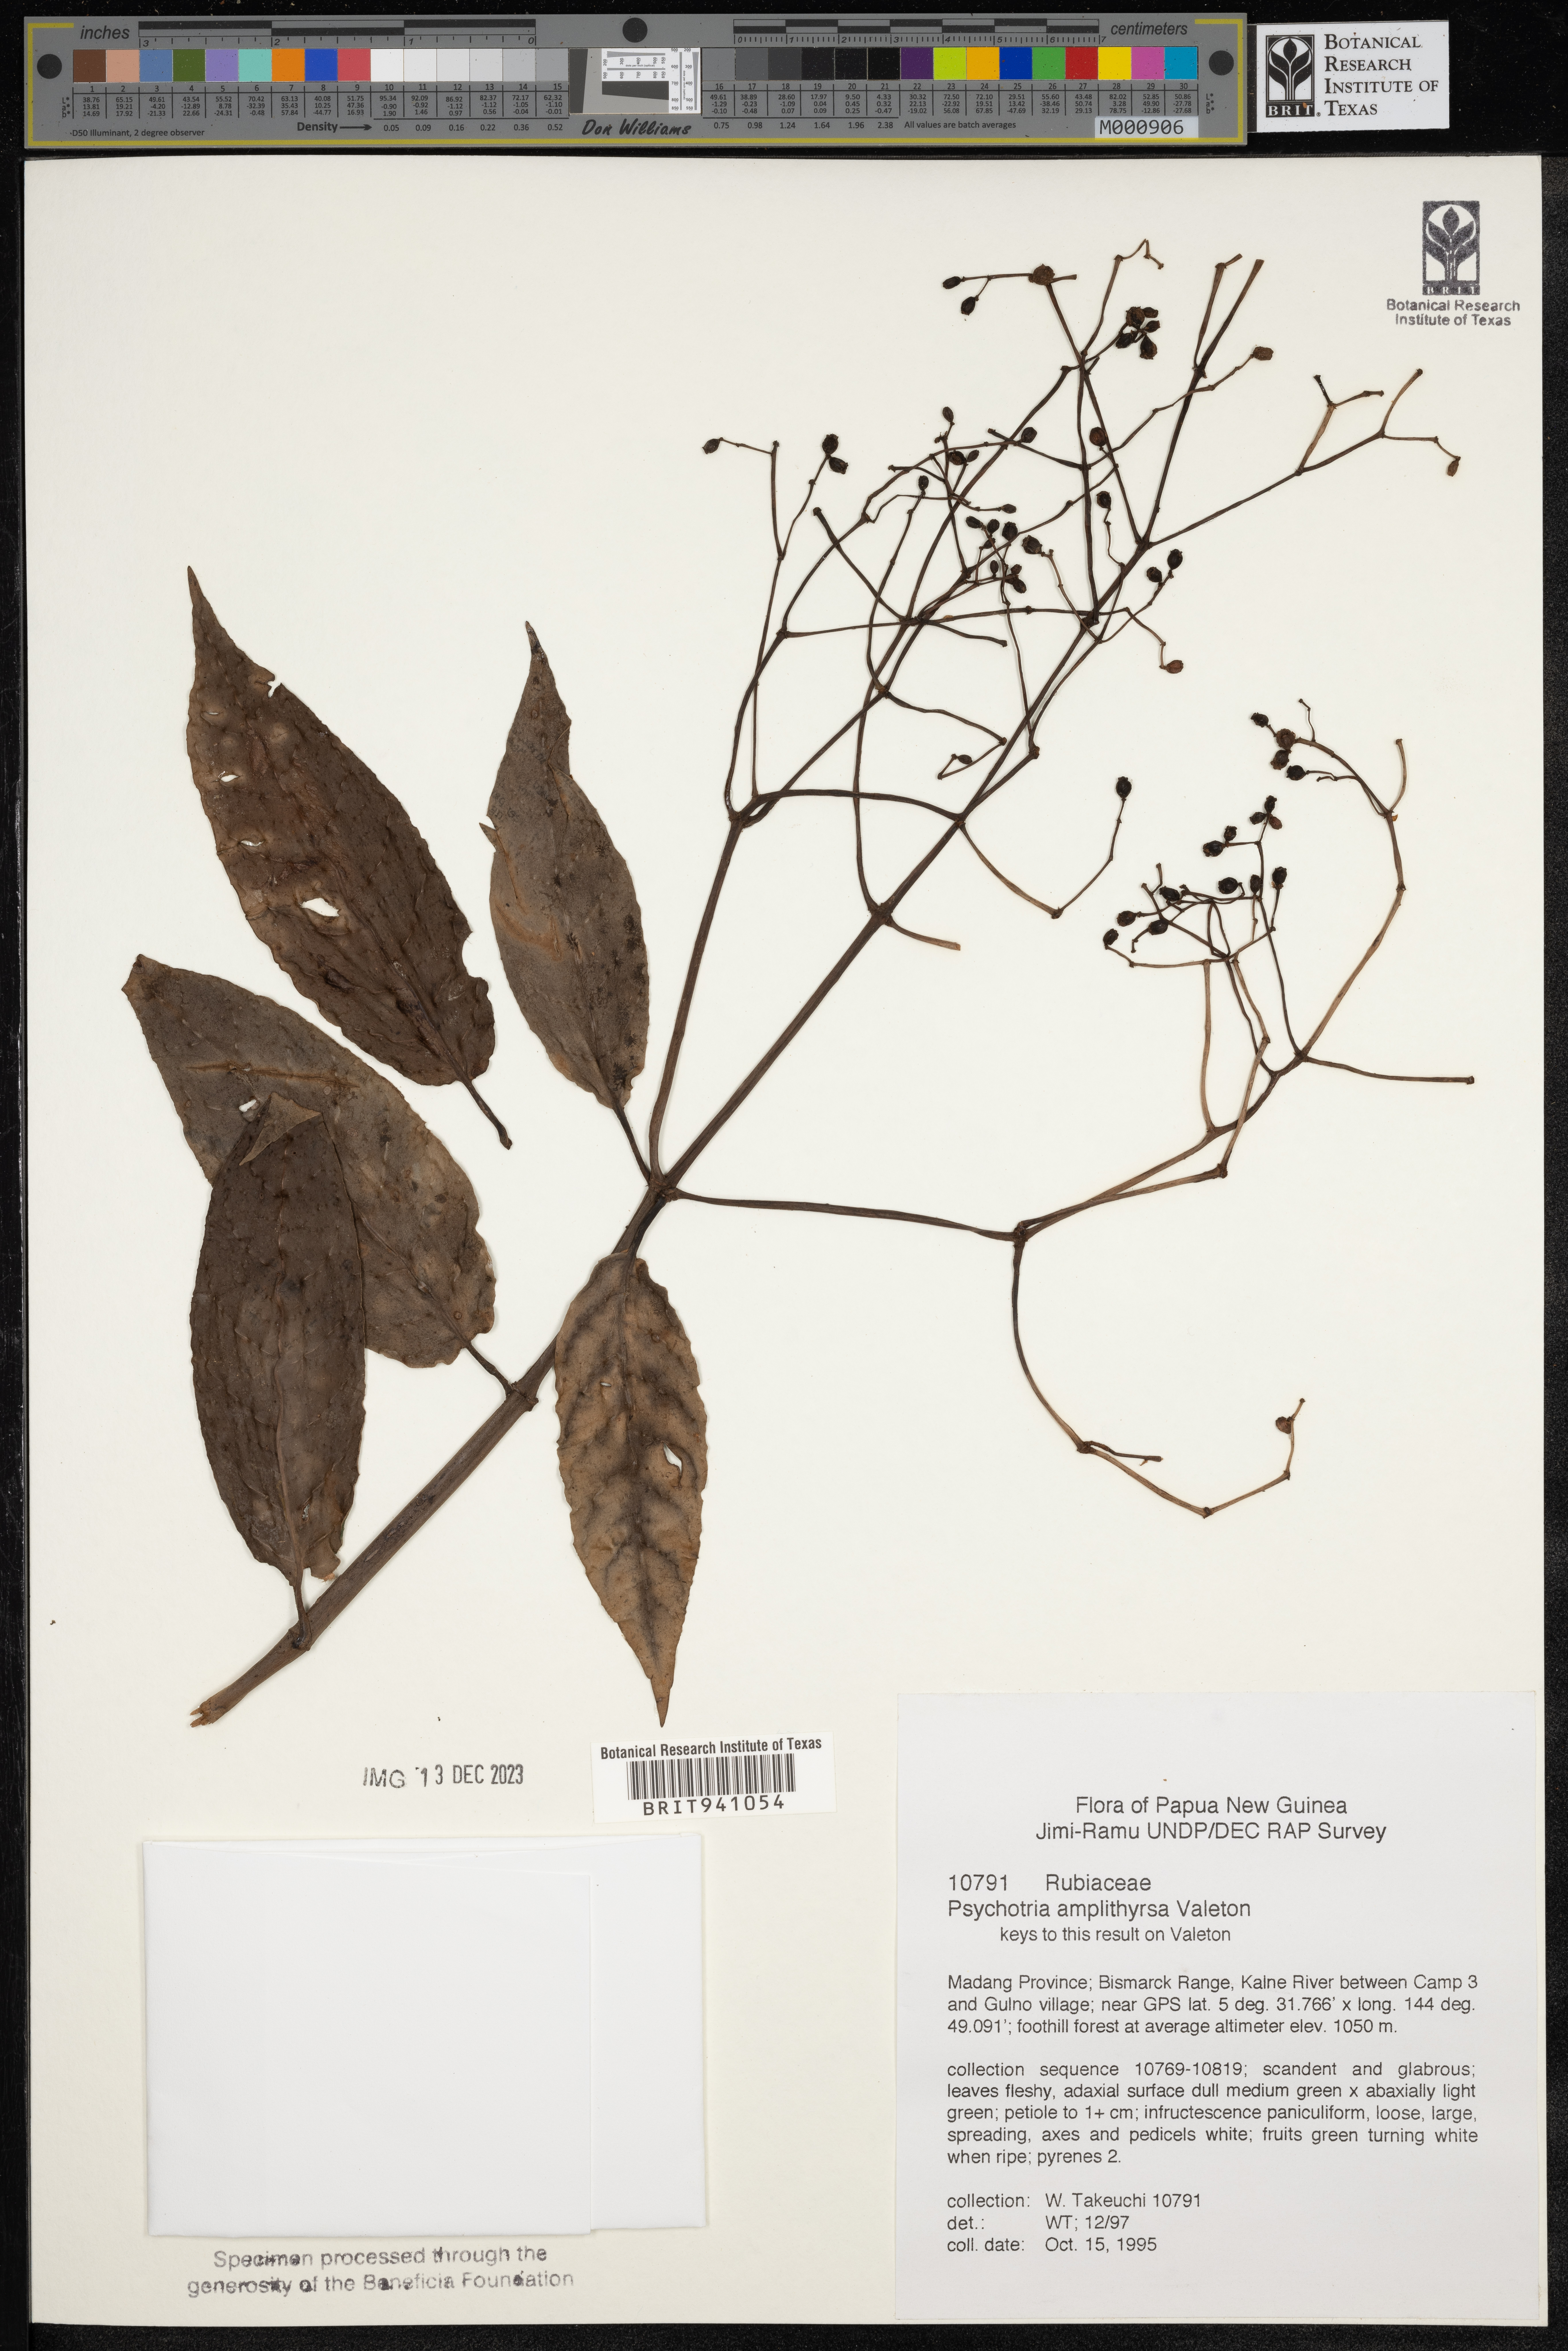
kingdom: Plantae
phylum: Tracheophyta
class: Magnoliopsida
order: Gentianales
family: Rubiaceae
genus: Psychotria
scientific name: Psychotria
